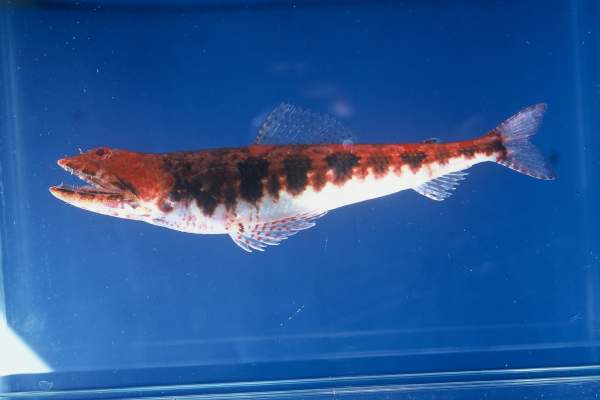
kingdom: Animalia
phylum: Chordata
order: Aulopiformes
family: Synodontidae
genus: Synodus
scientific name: Synodus binotatus
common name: Twospot lizardfish
